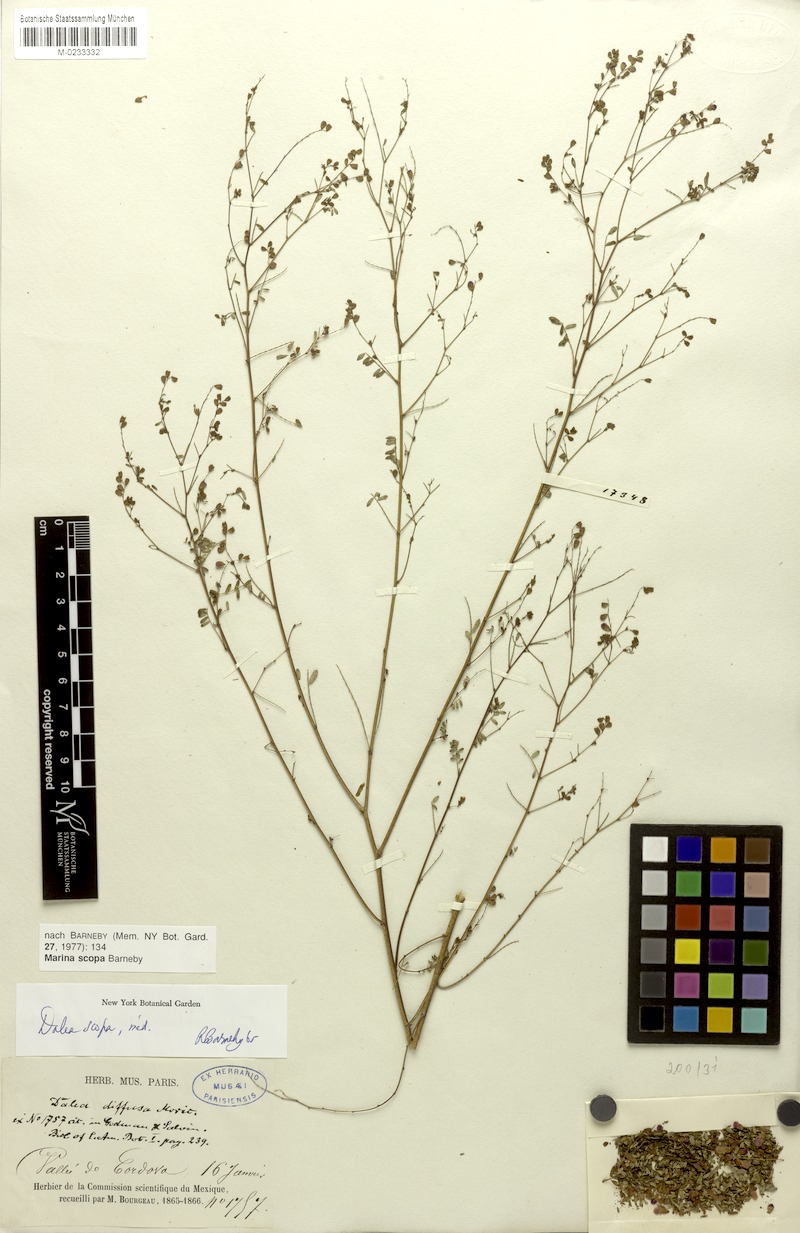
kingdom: Plantae
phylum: Tracheophyta
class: Magnoliopsida
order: Fabales
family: Fabaceae
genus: Marina
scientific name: Marina scopa
